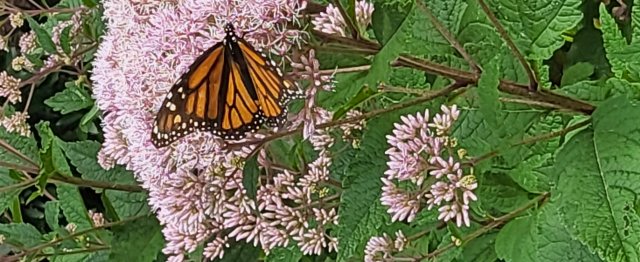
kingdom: Animalia
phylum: Arthropoda
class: Insecta
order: Lepidoptera
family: Nymphalidae
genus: Danaus
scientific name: Danaus plexippus
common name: Monarch
